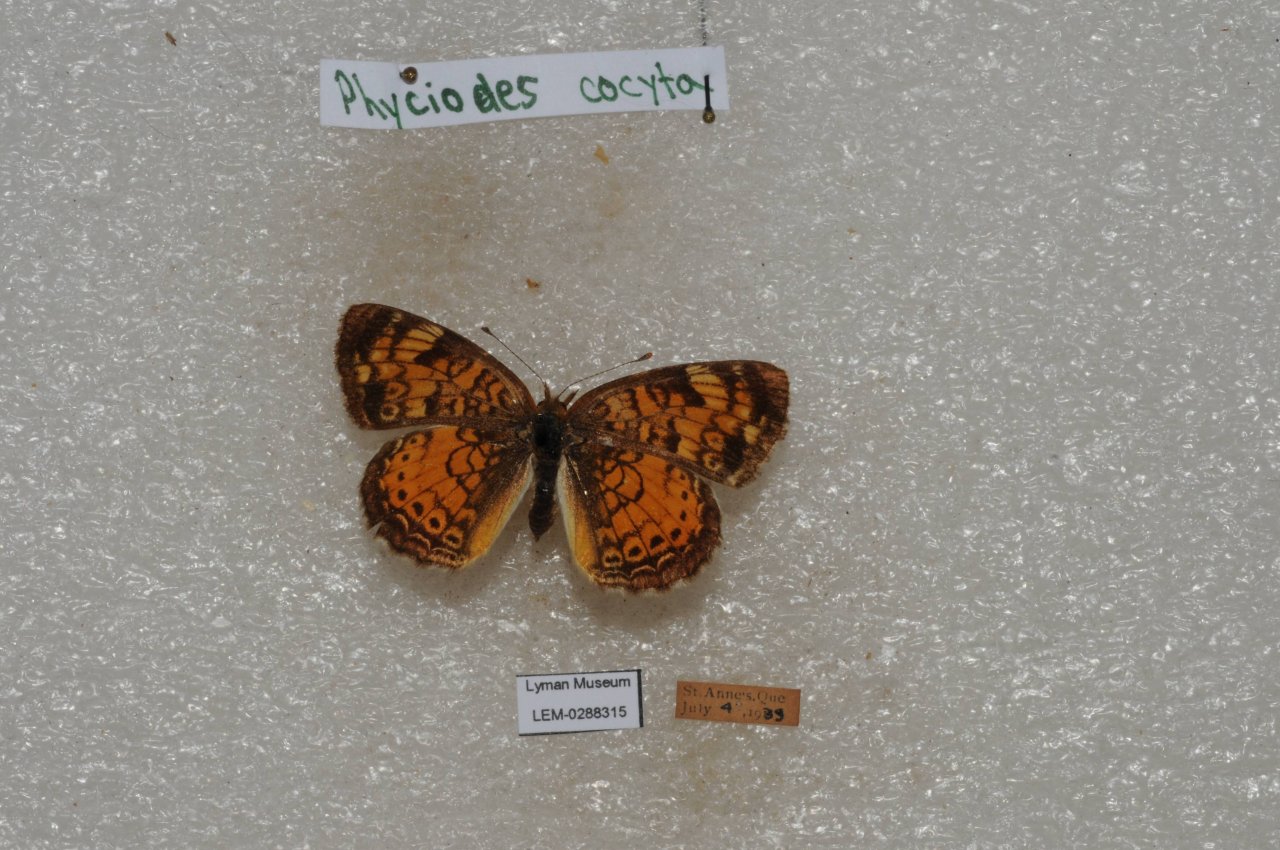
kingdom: Animalia
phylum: Arthropoda
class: Insecta
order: Lepidoptera
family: Nymphalidae
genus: Phyciodes
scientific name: Phyciodes tharos
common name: Northern Crescent
